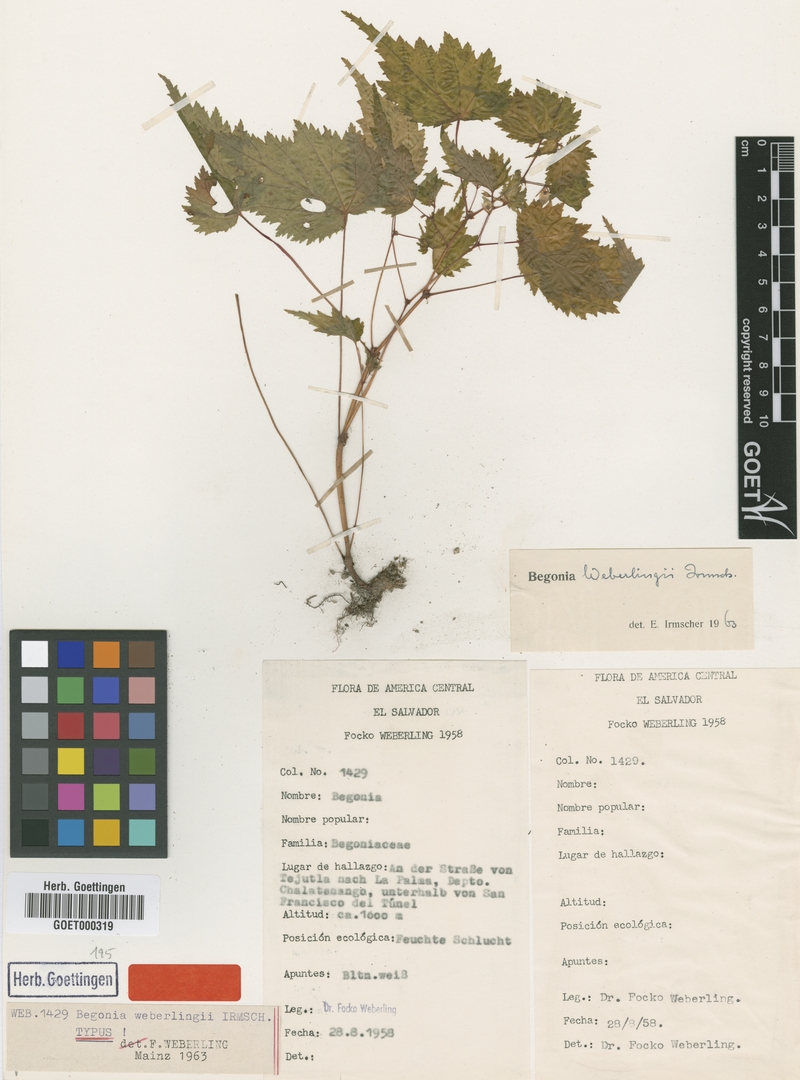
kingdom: Plantae
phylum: Tracheophyta
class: Magnoliopsida
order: Cucurbitales
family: Begoniaceae
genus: Begonia
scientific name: Begonia weberlingii
